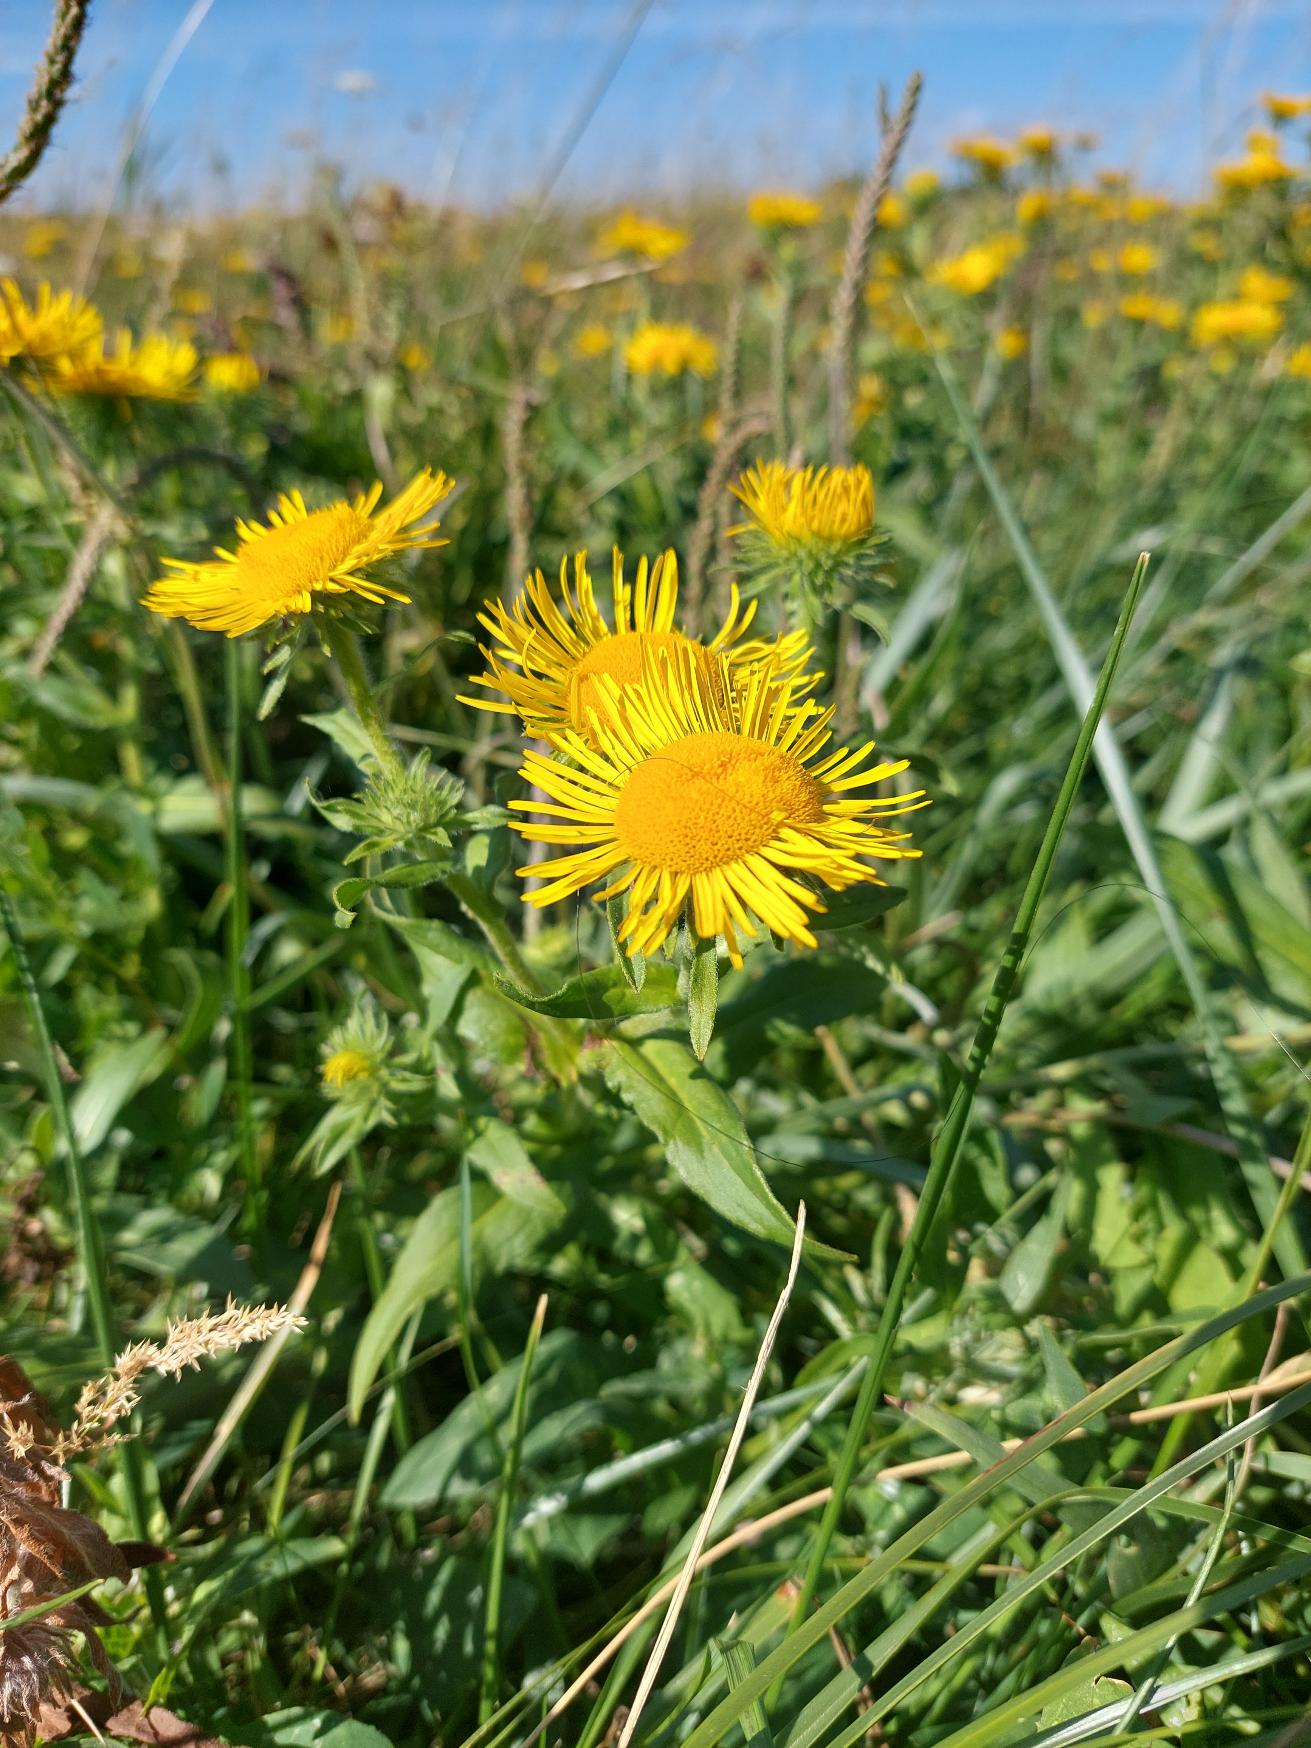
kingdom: Plantae
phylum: Tracheophyta
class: Magnoliopsida
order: Asterales
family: Asteraceae
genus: Pentanema
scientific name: Pentanema britannicum
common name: Soløje-alant
